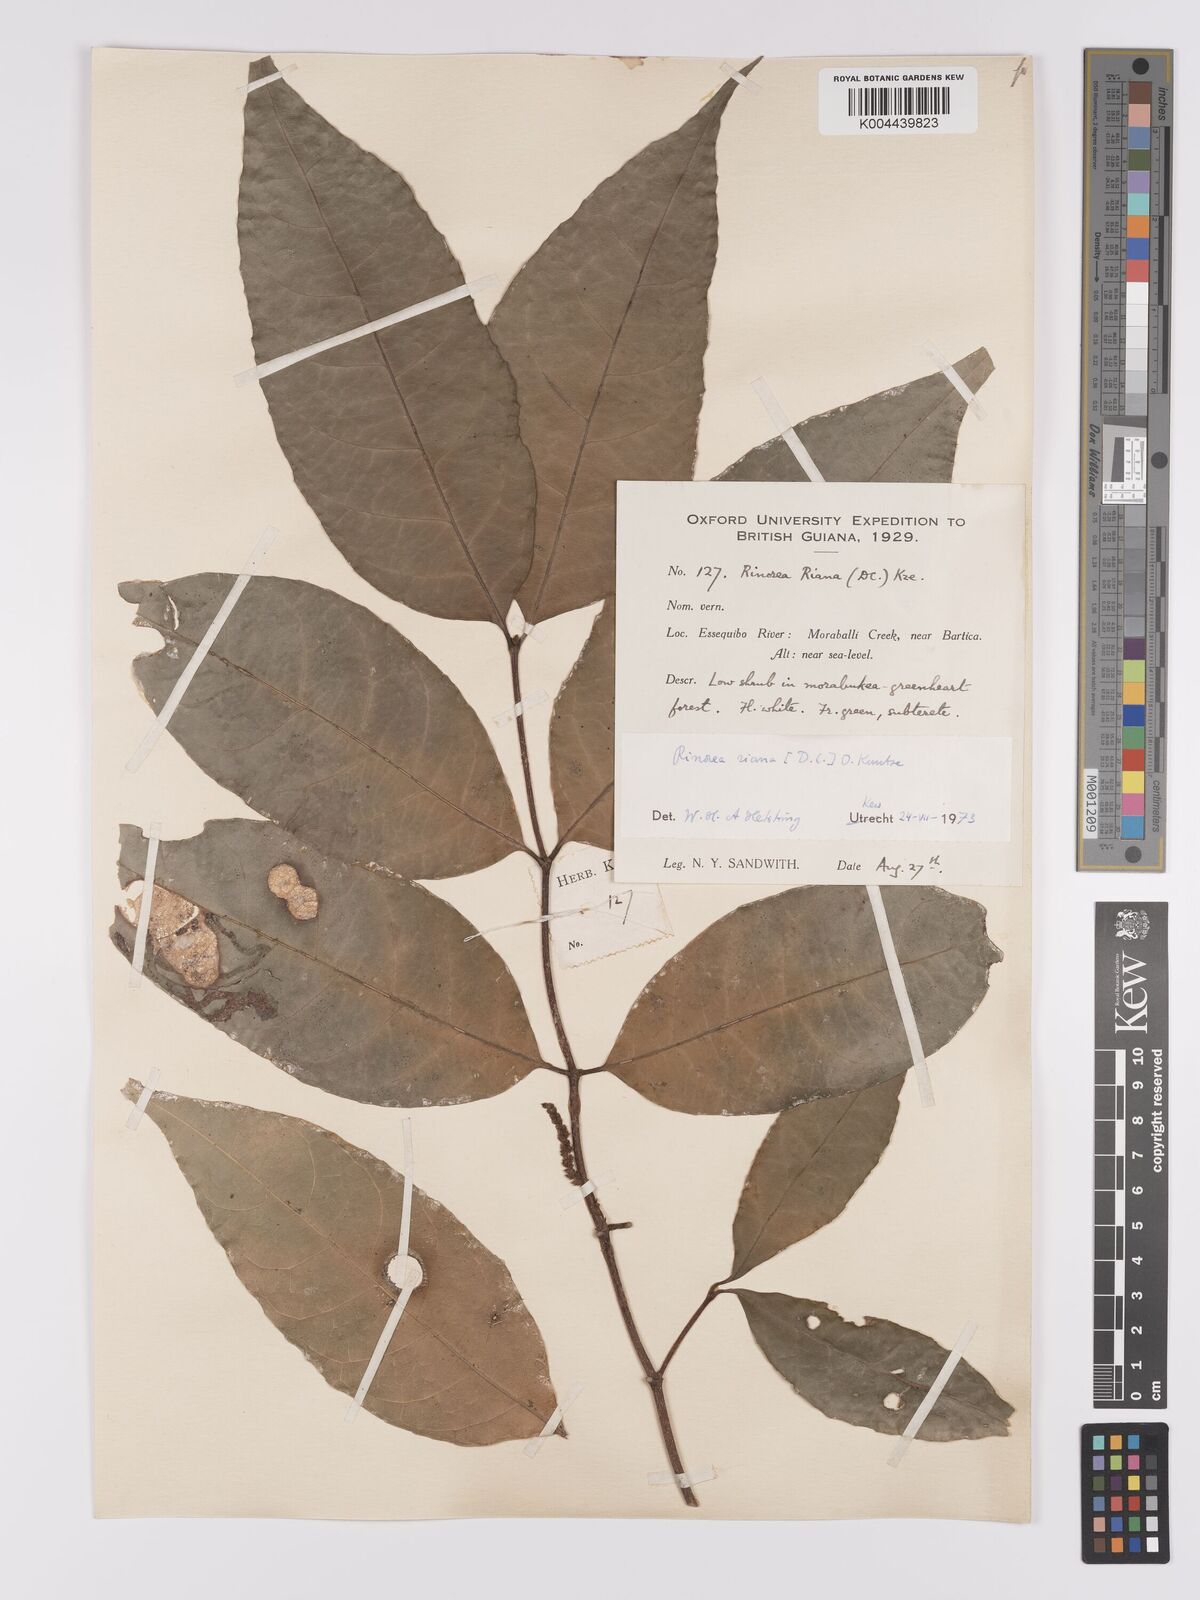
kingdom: Plantae
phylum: Tracheophyta
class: Magnoliopsida
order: Malpighiales
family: Violaceae
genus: Rinorea
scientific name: Rinorea riana
